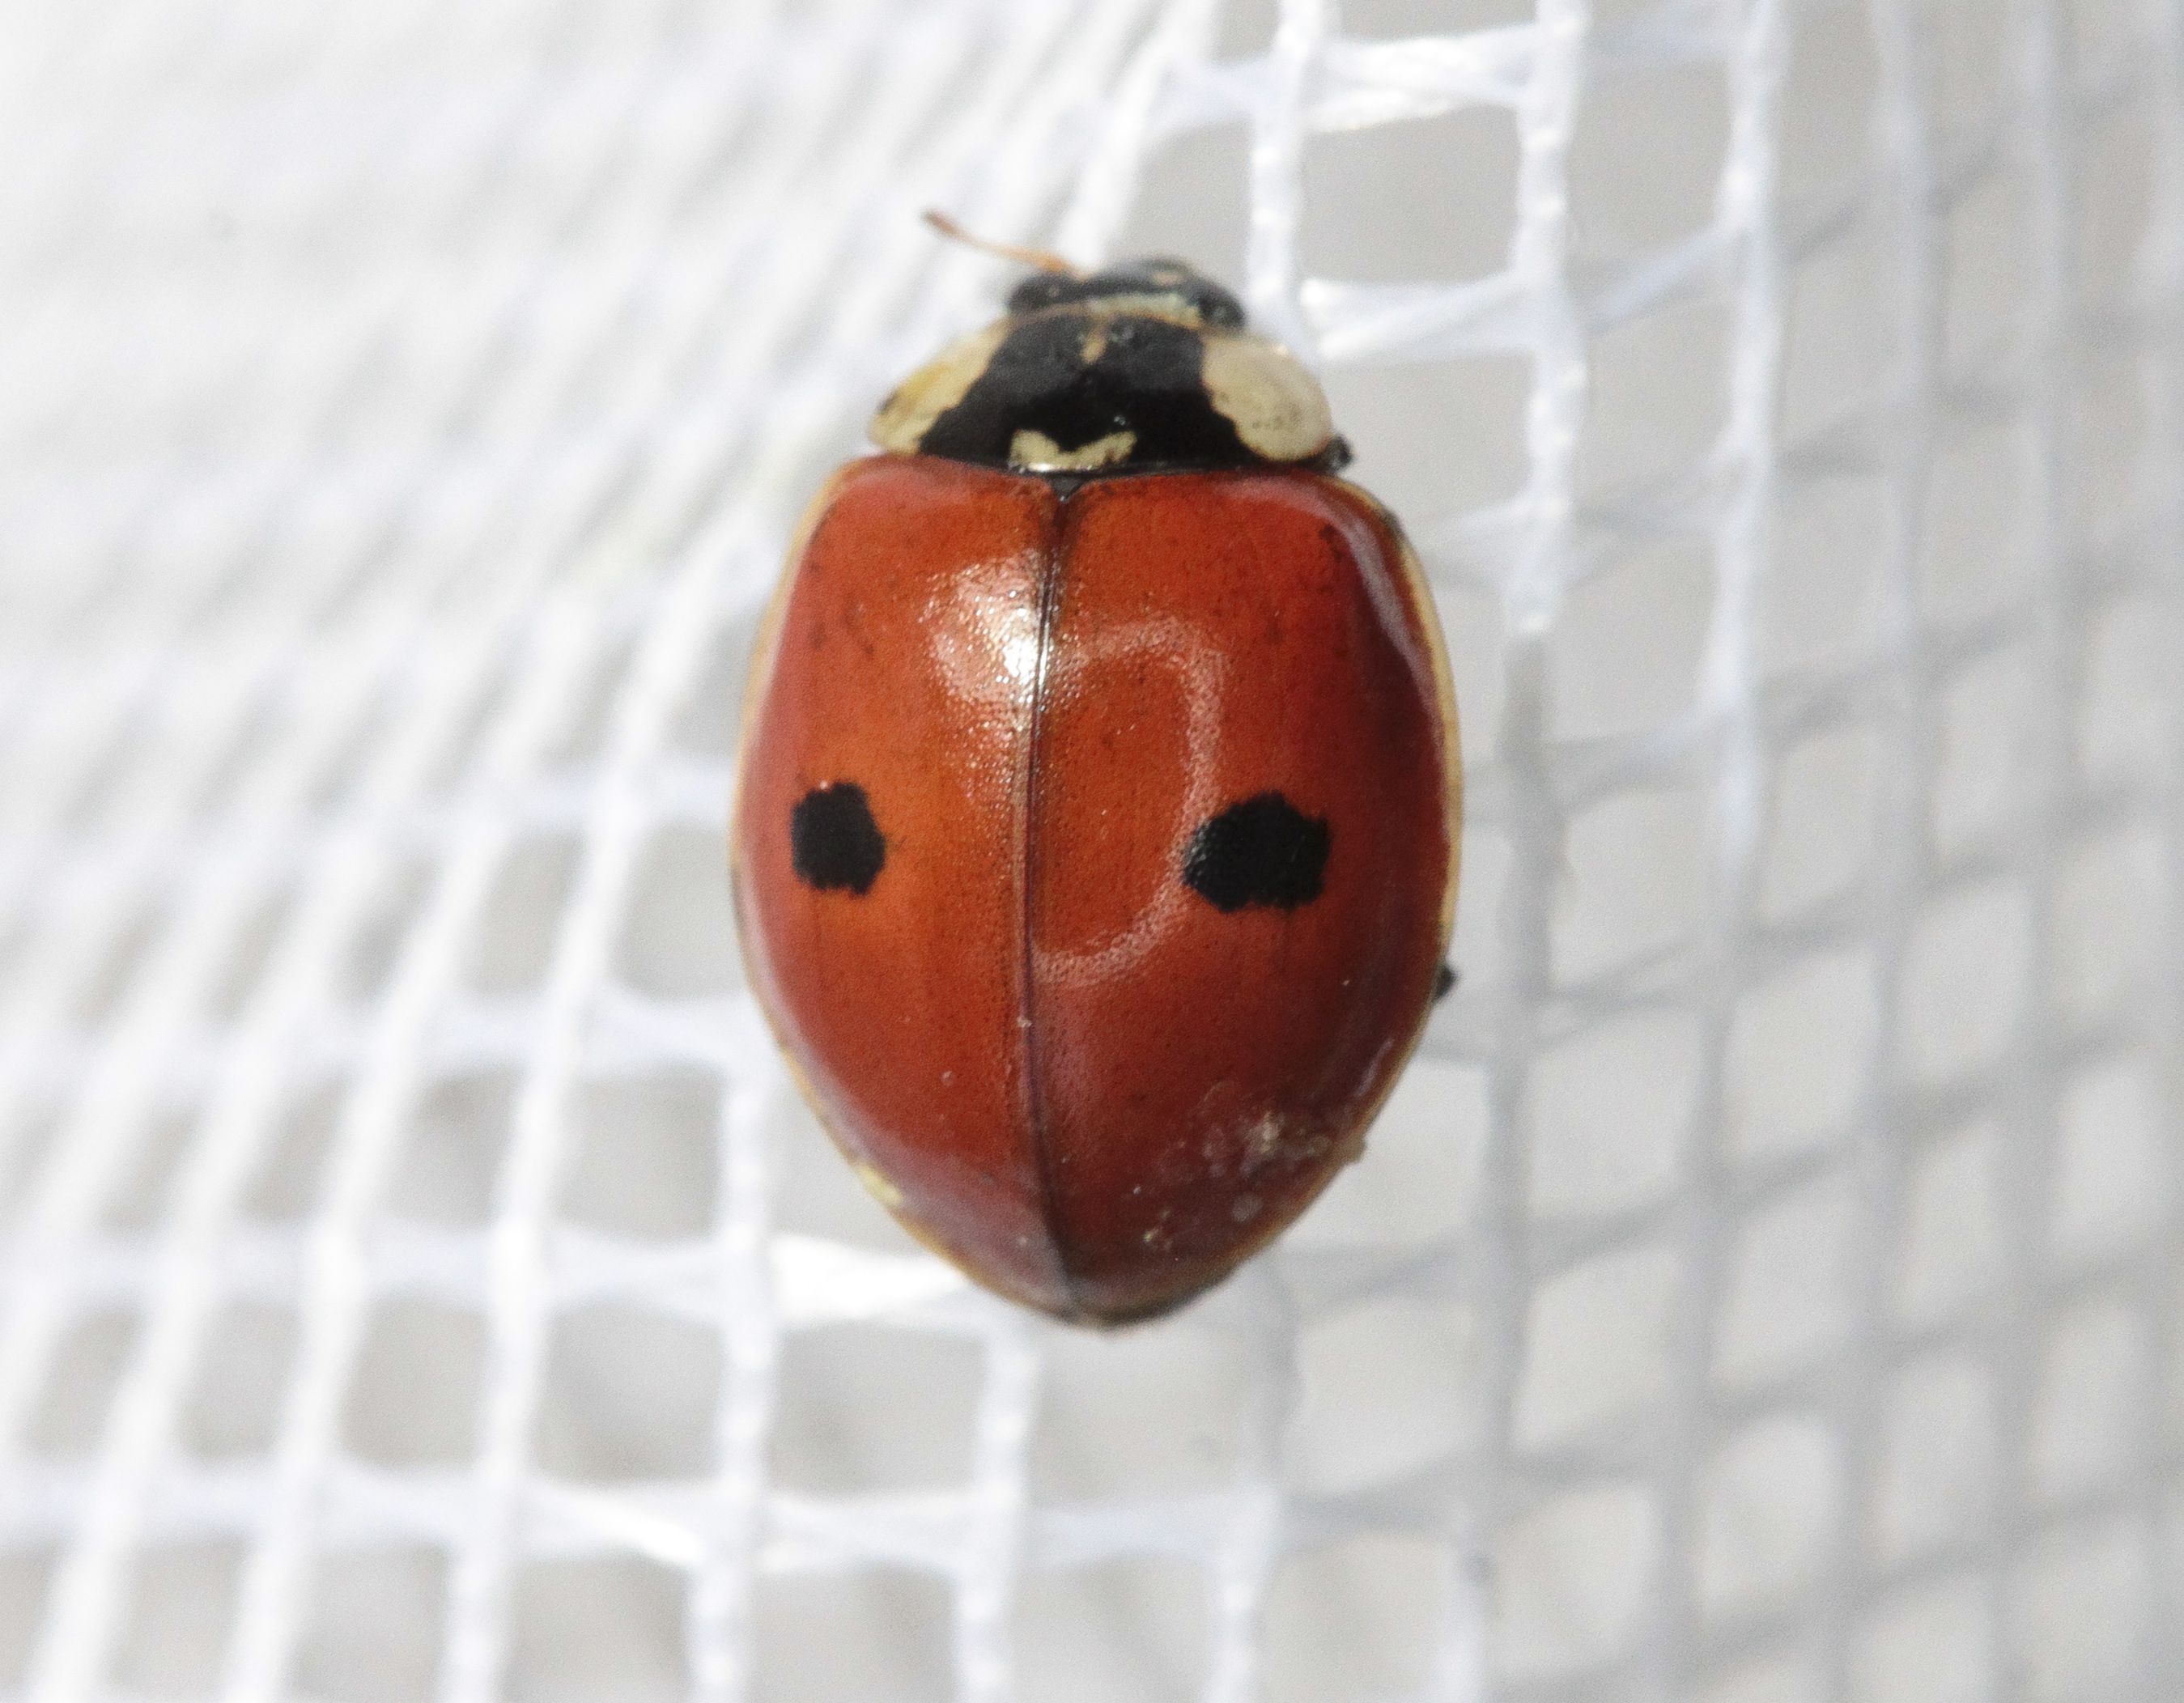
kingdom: Animalia
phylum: Arthropoda
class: Insecta
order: Coleoptera
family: Coccinellidae
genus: Adalia
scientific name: Adalia bipunctata
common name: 2-spot ladybird
